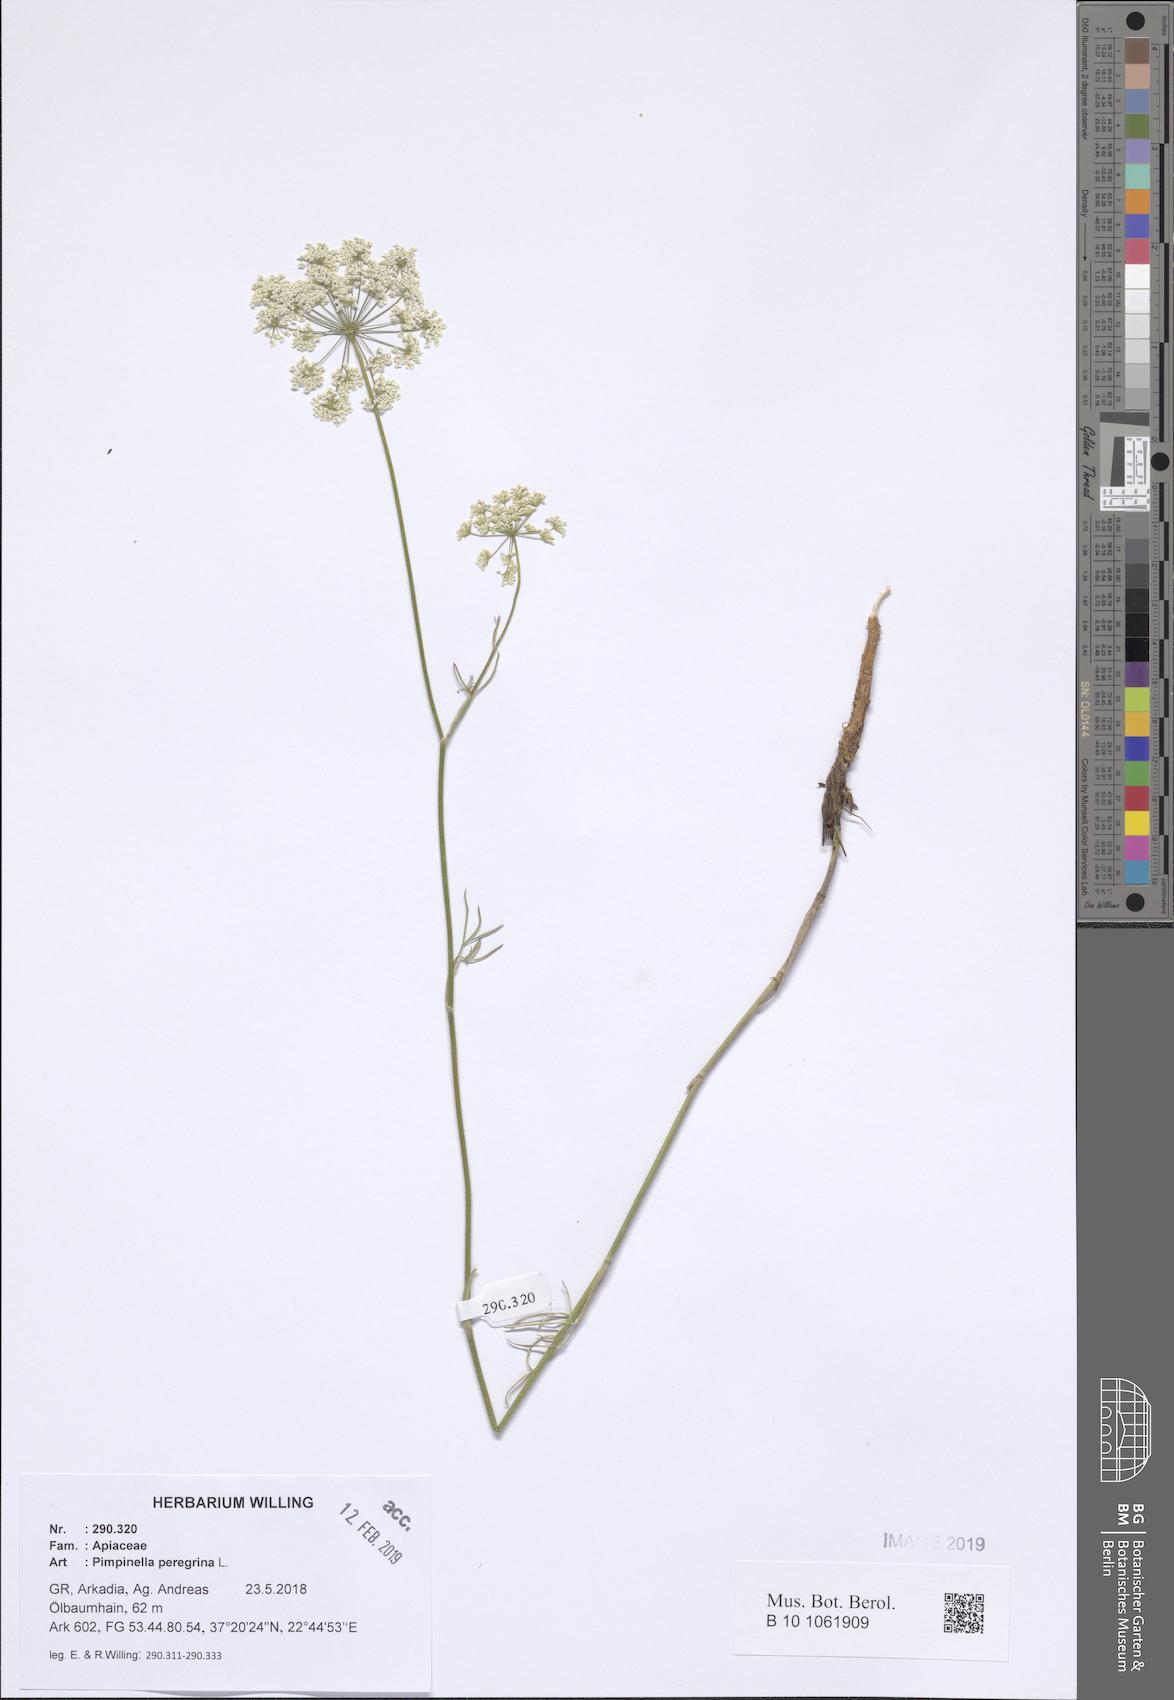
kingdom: Plantae
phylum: Tracheophyta
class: Magnoliopsida
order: Apiales
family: Apiaceae
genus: Pimpinella
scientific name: Pimpinella peregrina
